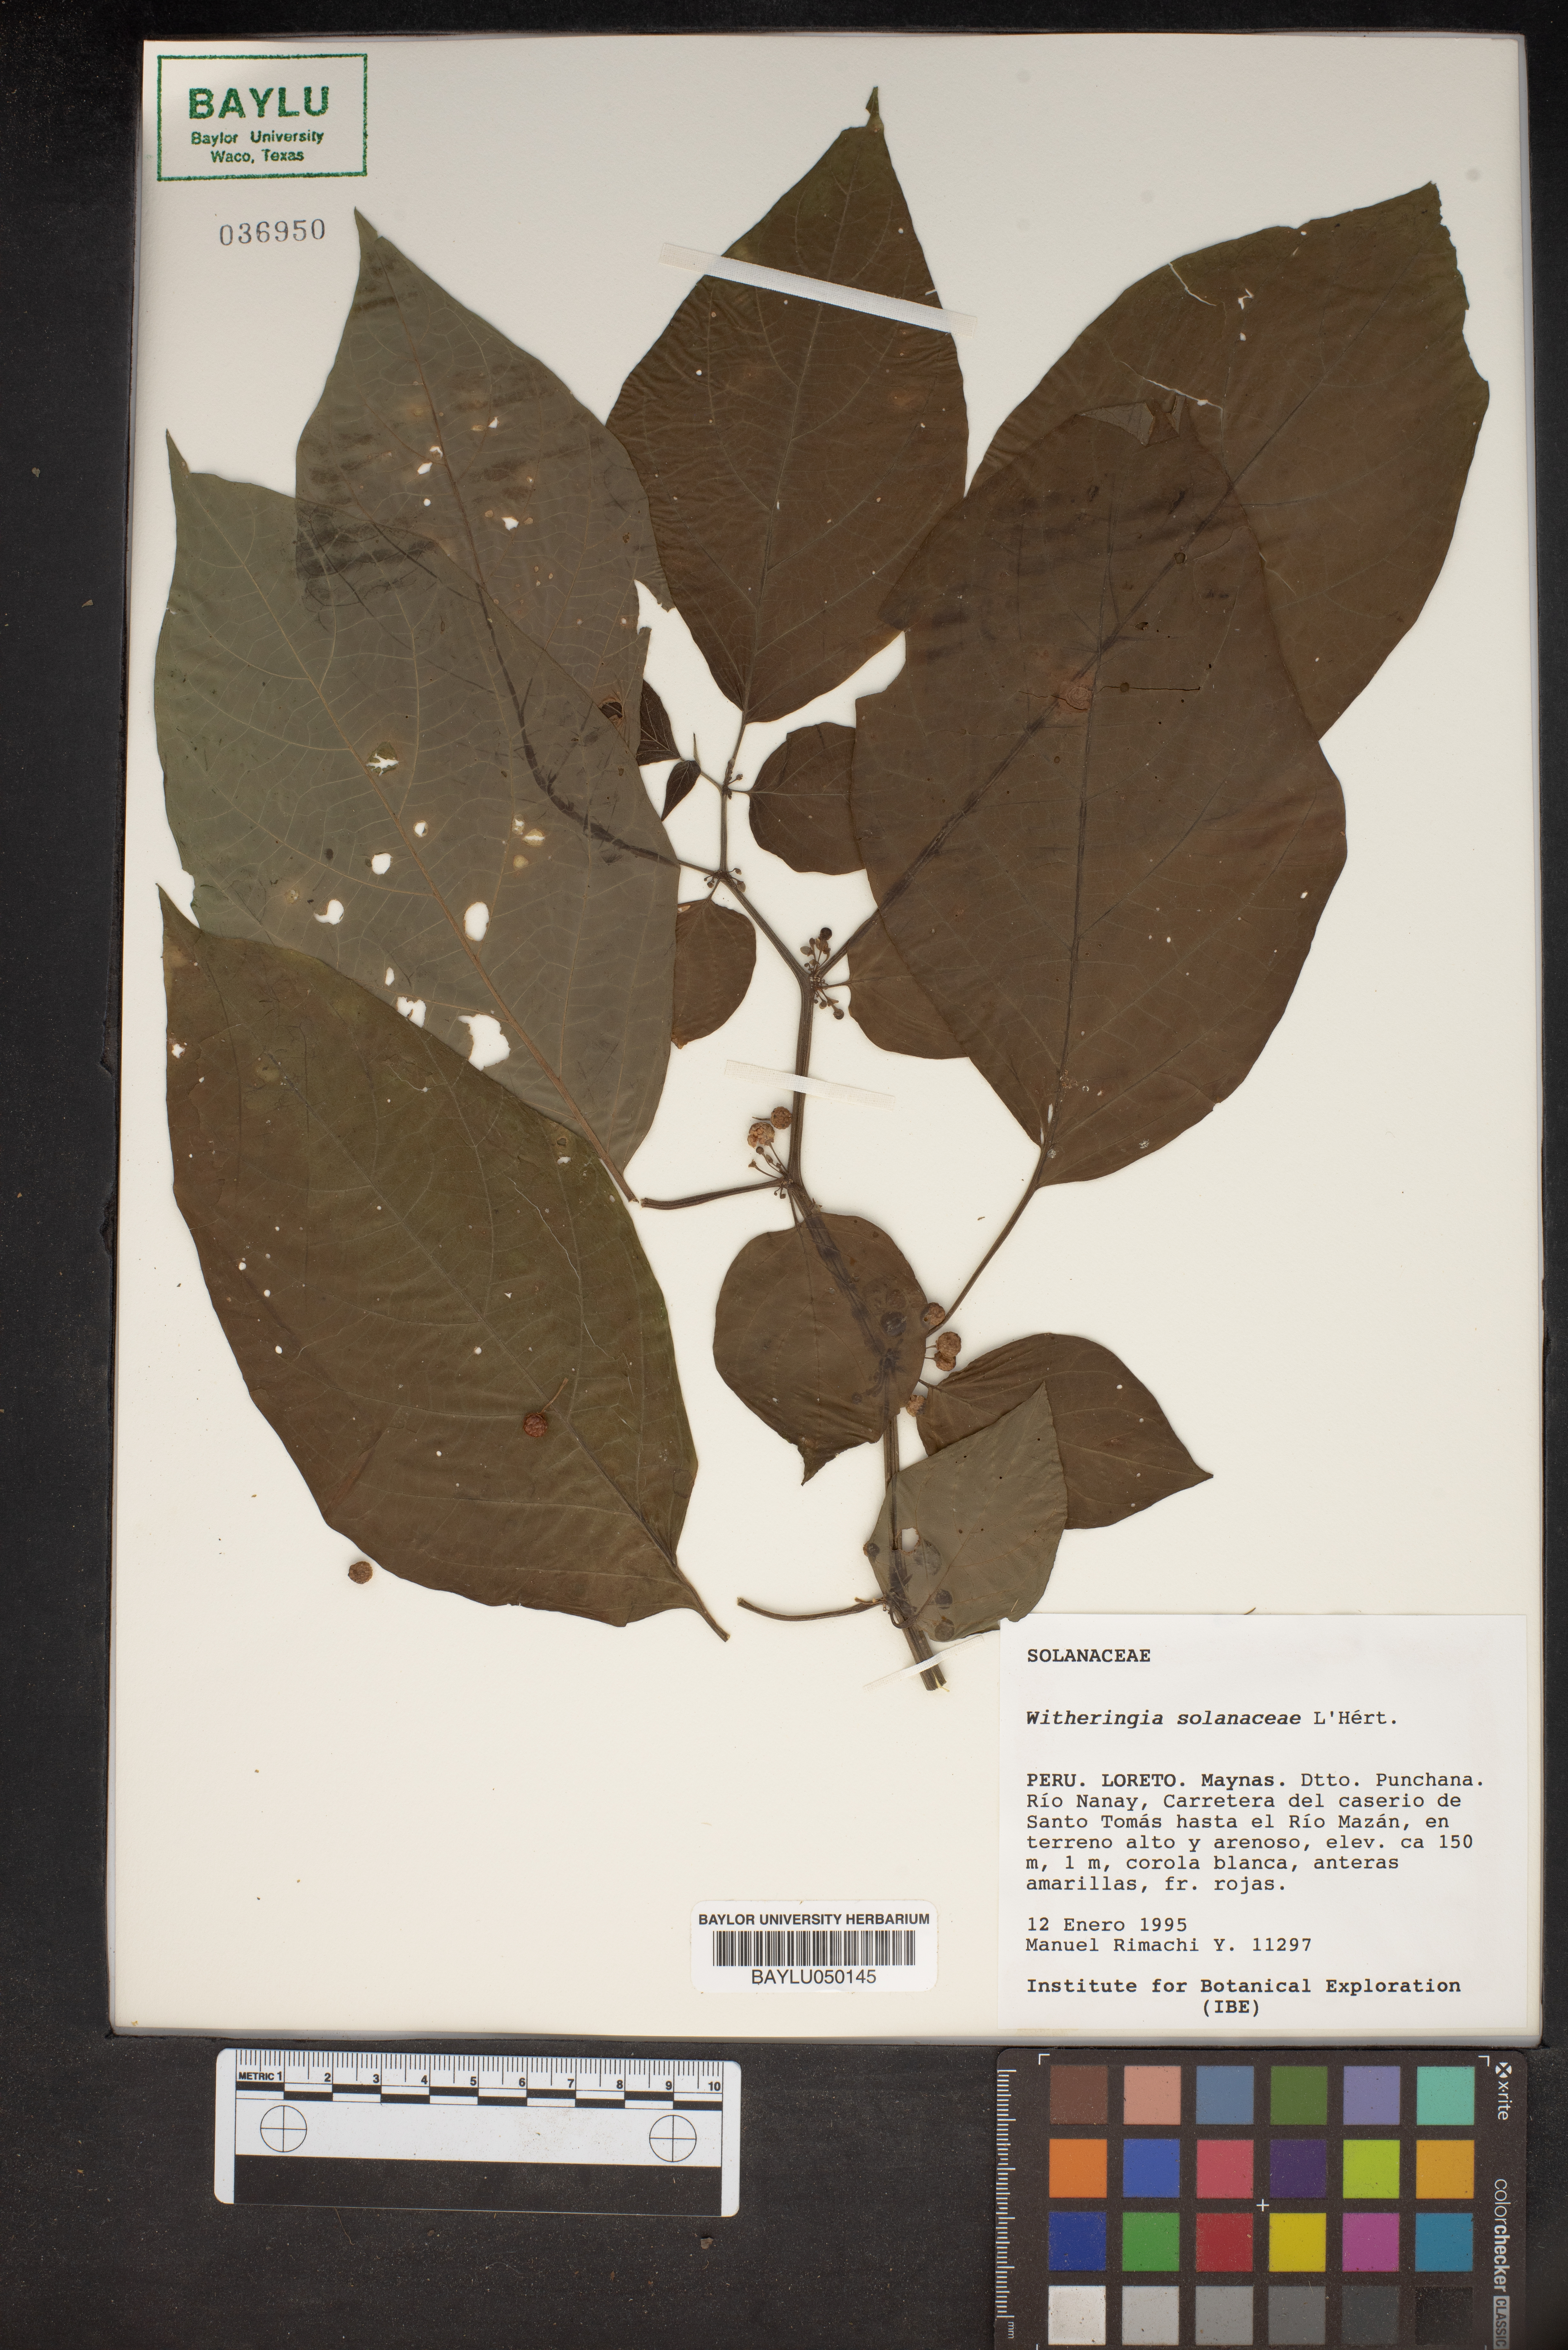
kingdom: Plantae
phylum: Tracheophyta
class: Magnoliopsida
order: Solanales
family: Solanaceae
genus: Athenaea
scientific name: Athenaea Witheringia solanacea
